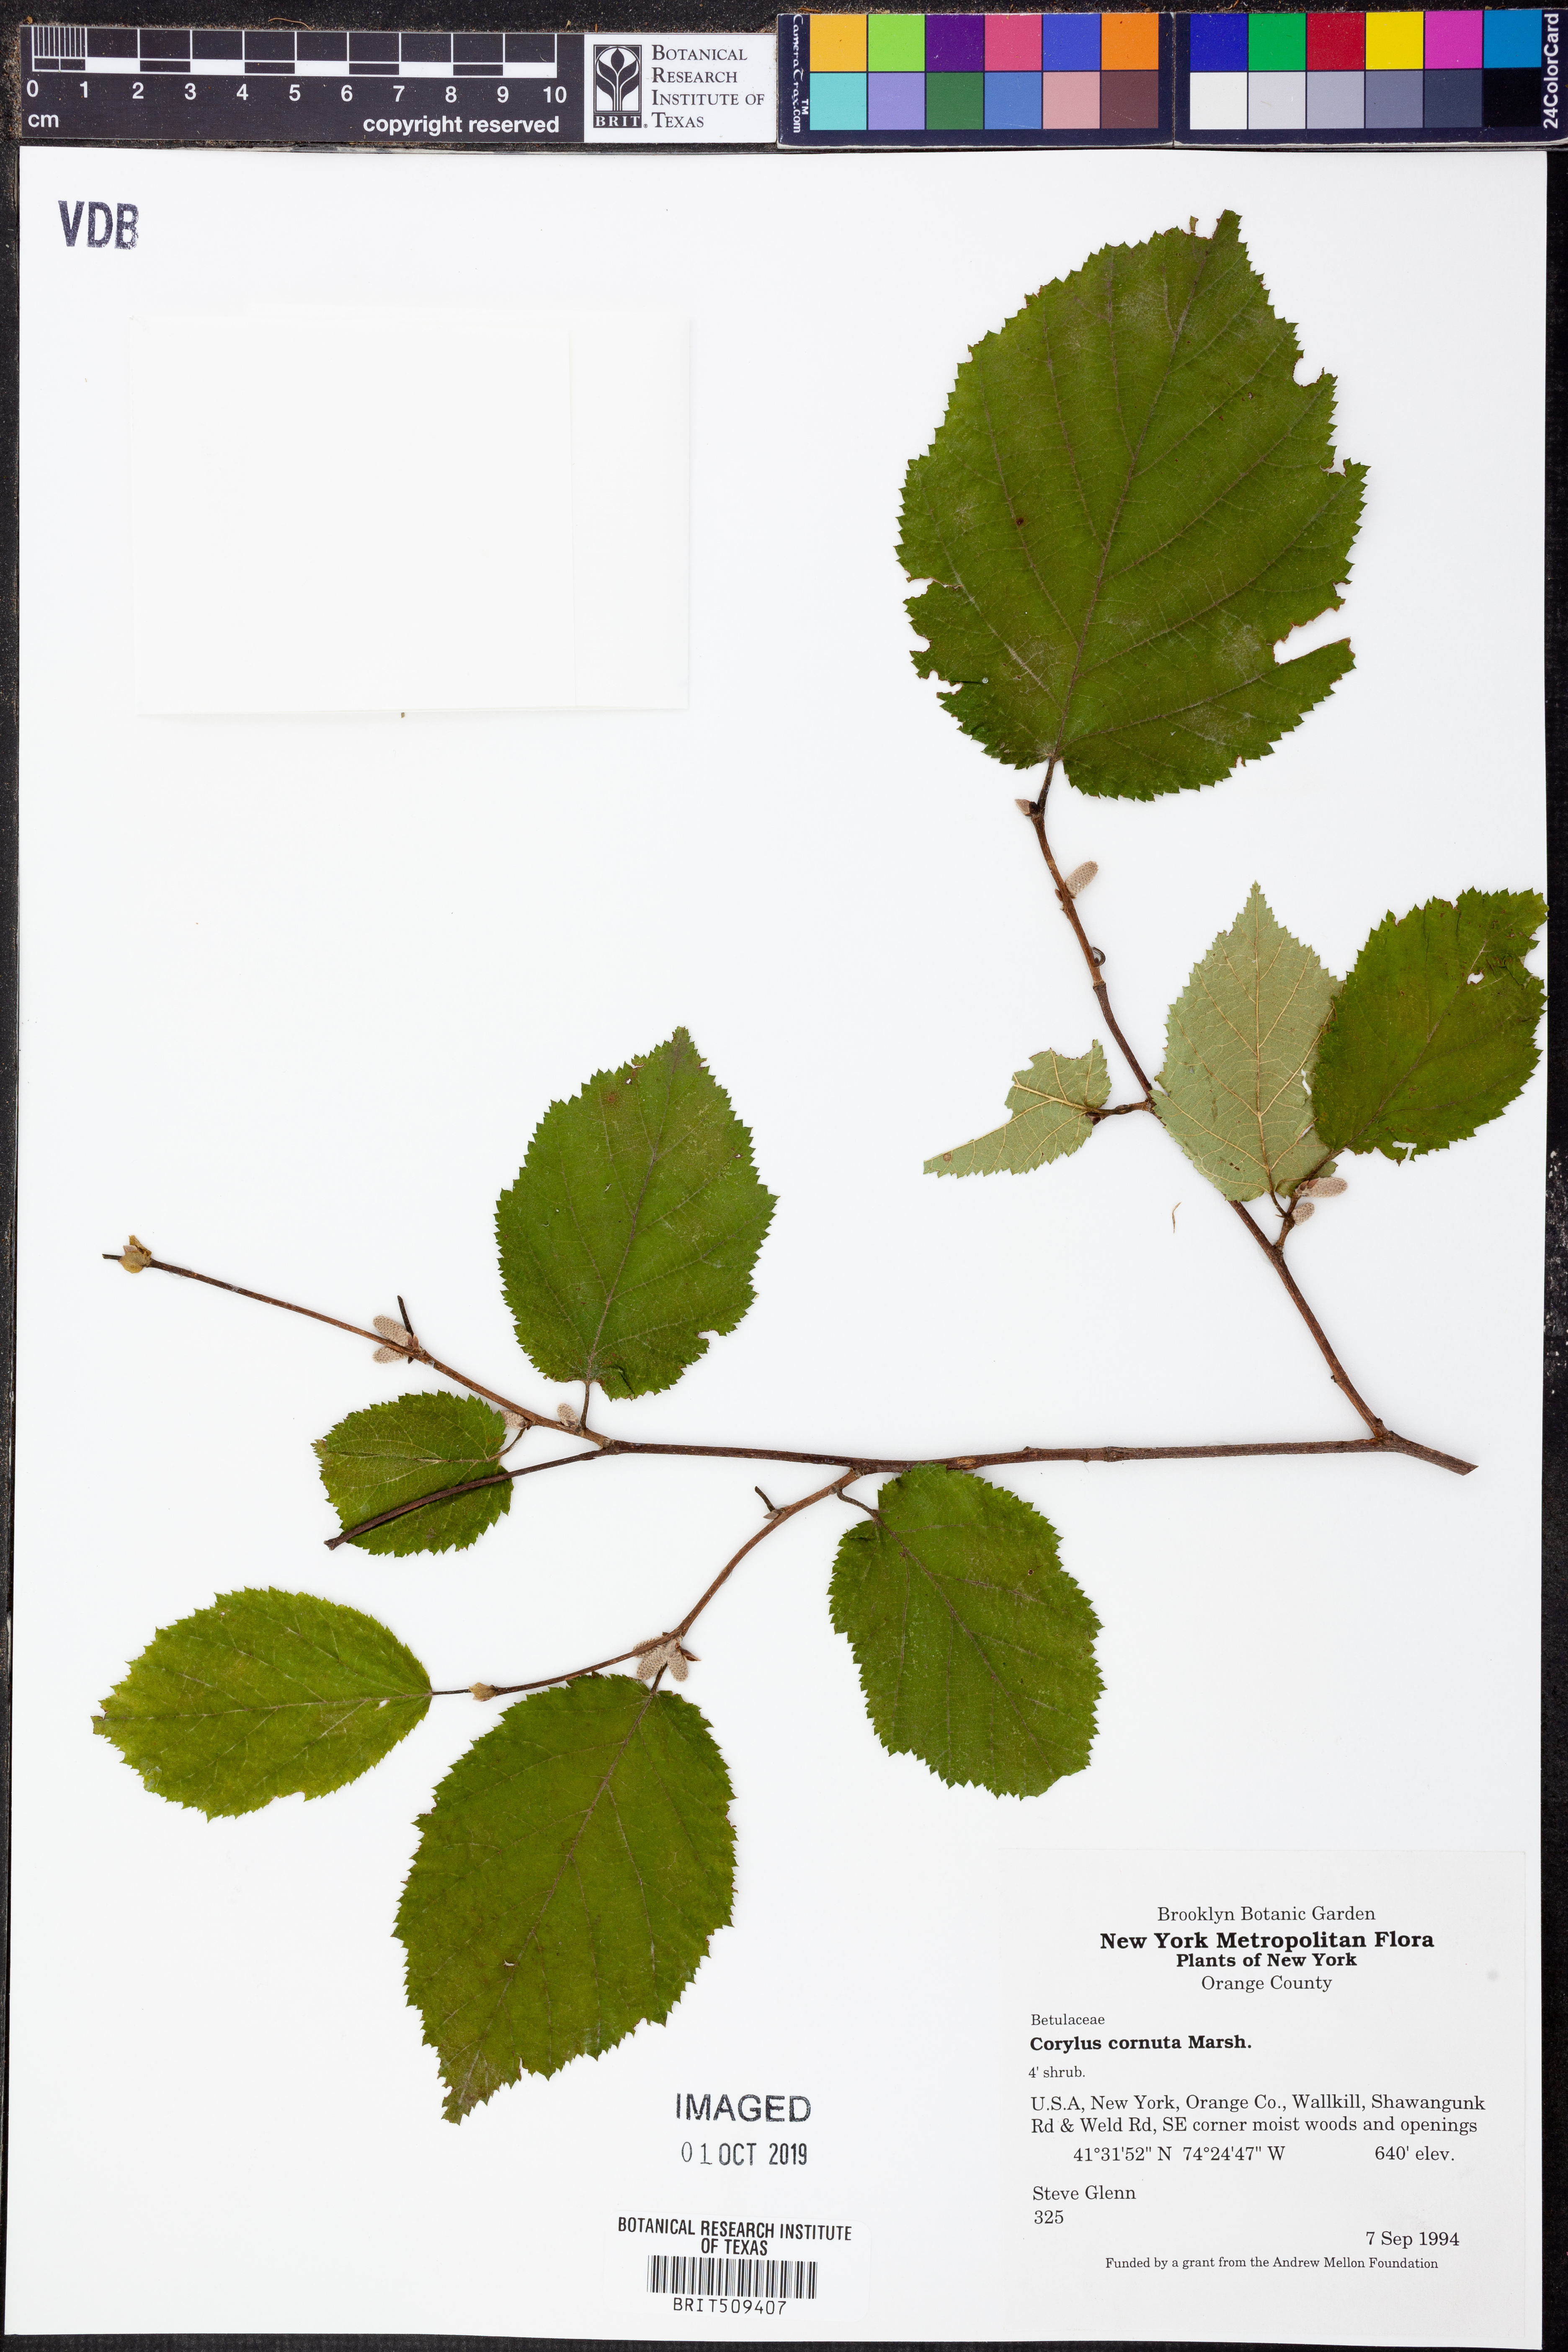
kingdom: Plantae
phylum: Tracheophyta
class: Magnoliopsida
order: Fagales
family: Betulaceae
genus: Corylus
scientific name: Corylus cornuta
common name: Beaked hazel
